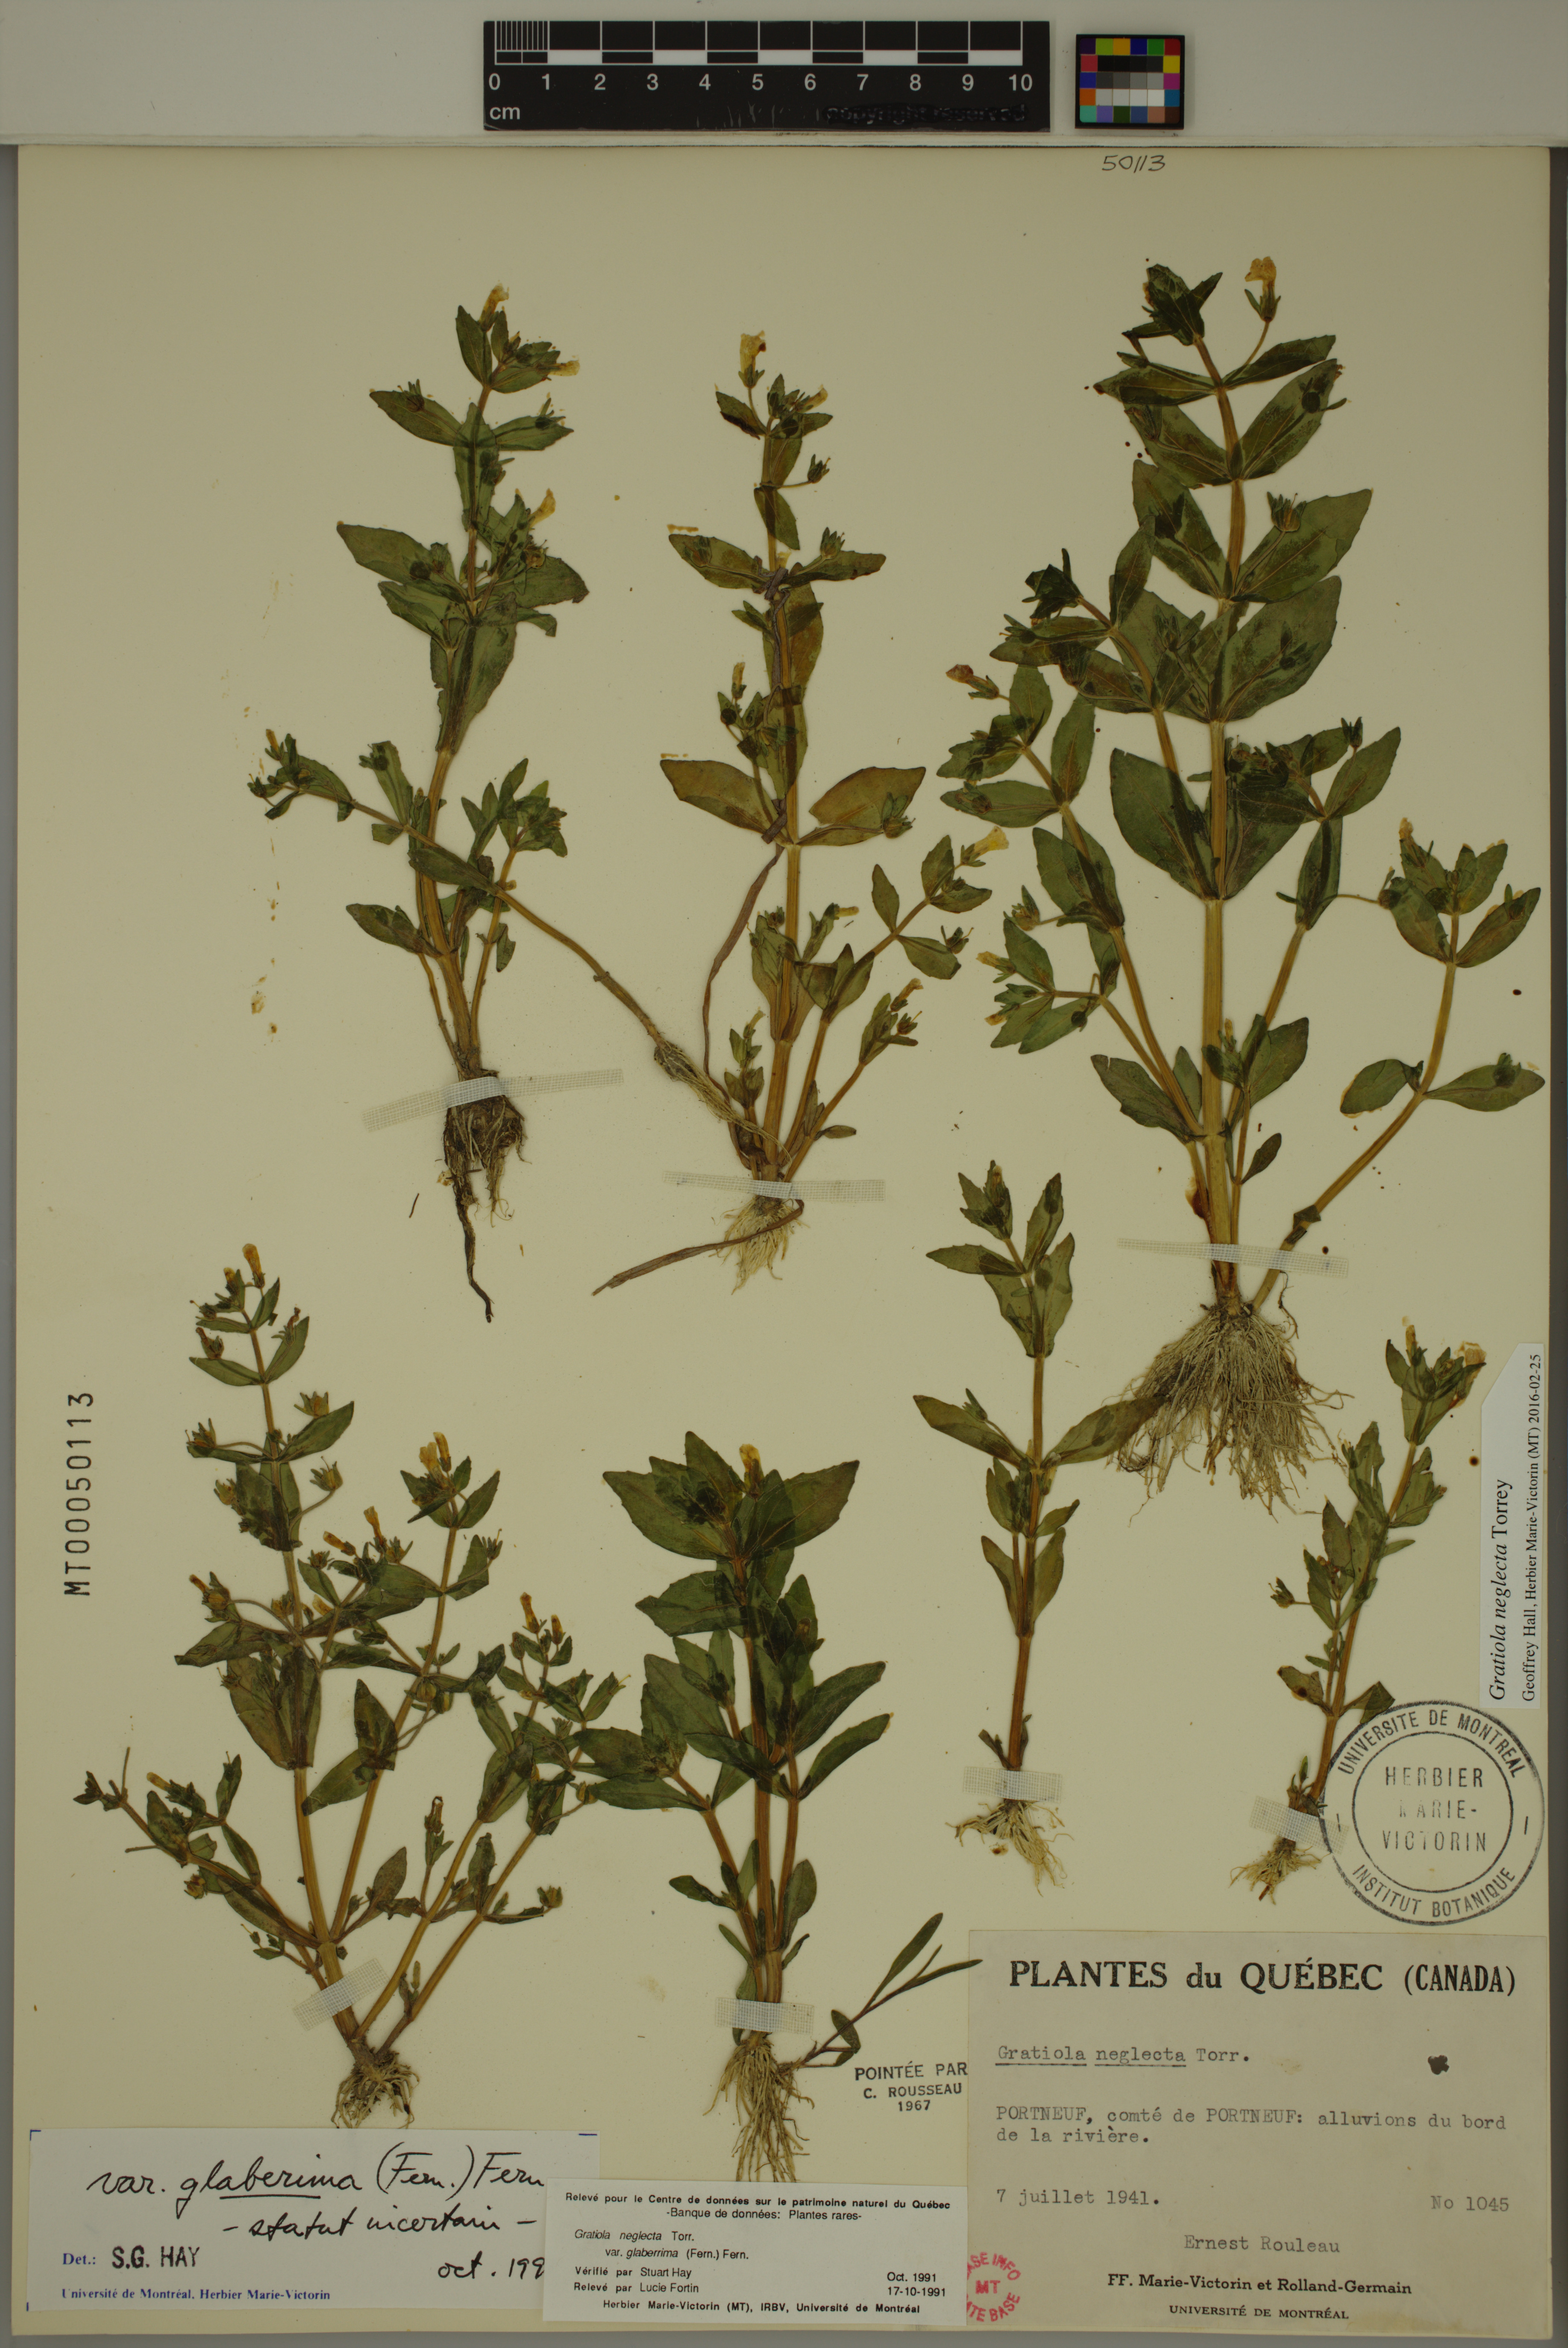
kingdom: Plantae
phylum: Tracheophyta
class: Magnoliopsida
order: Lamiales
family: Plantaginaceae
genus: Gratiola
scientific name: Gratiola neglecta
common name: American hedge-hyssop
